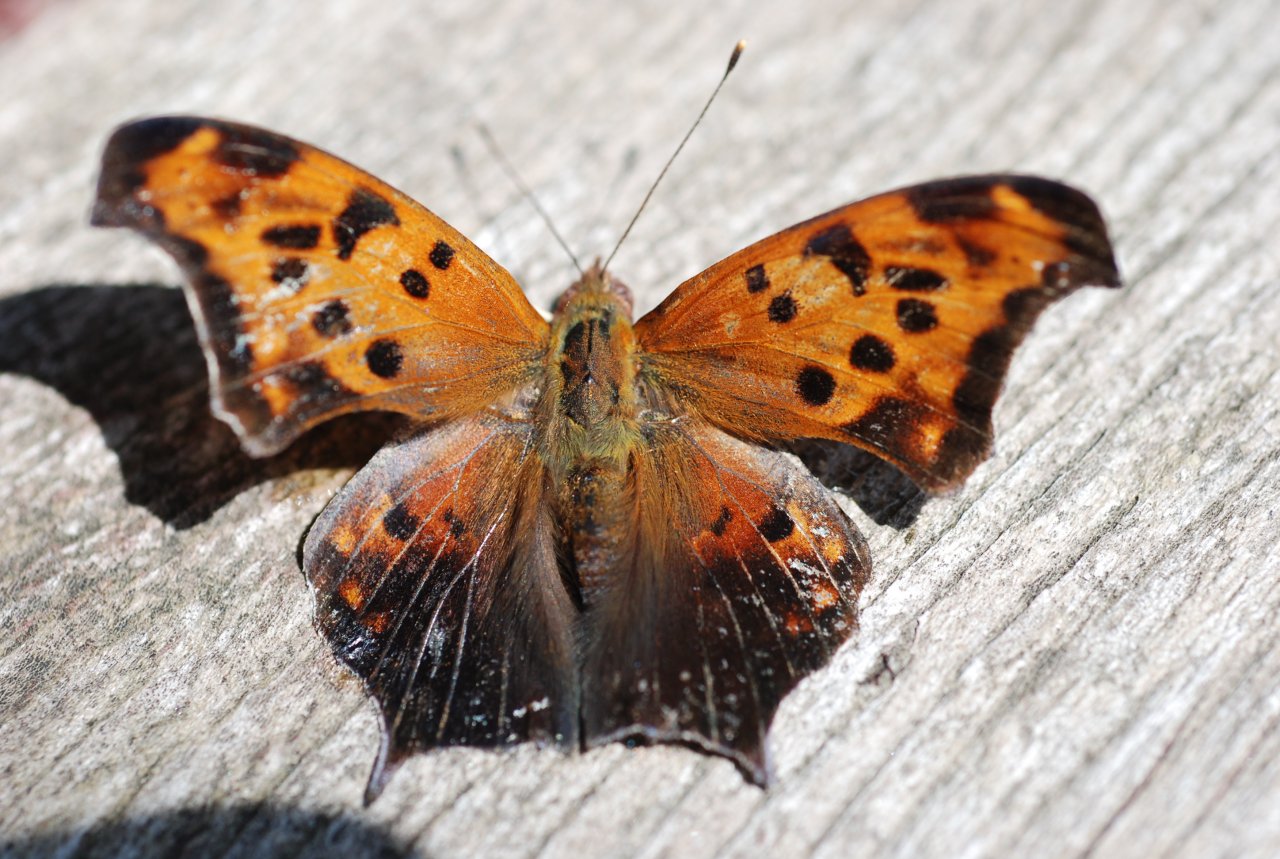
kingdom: Animalia
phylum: Arthropoda
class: Insecta
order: Lepidoptera
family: Nymphalidae
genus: Polygonia
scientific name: Polygonia interrogationis
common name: Question Mark
